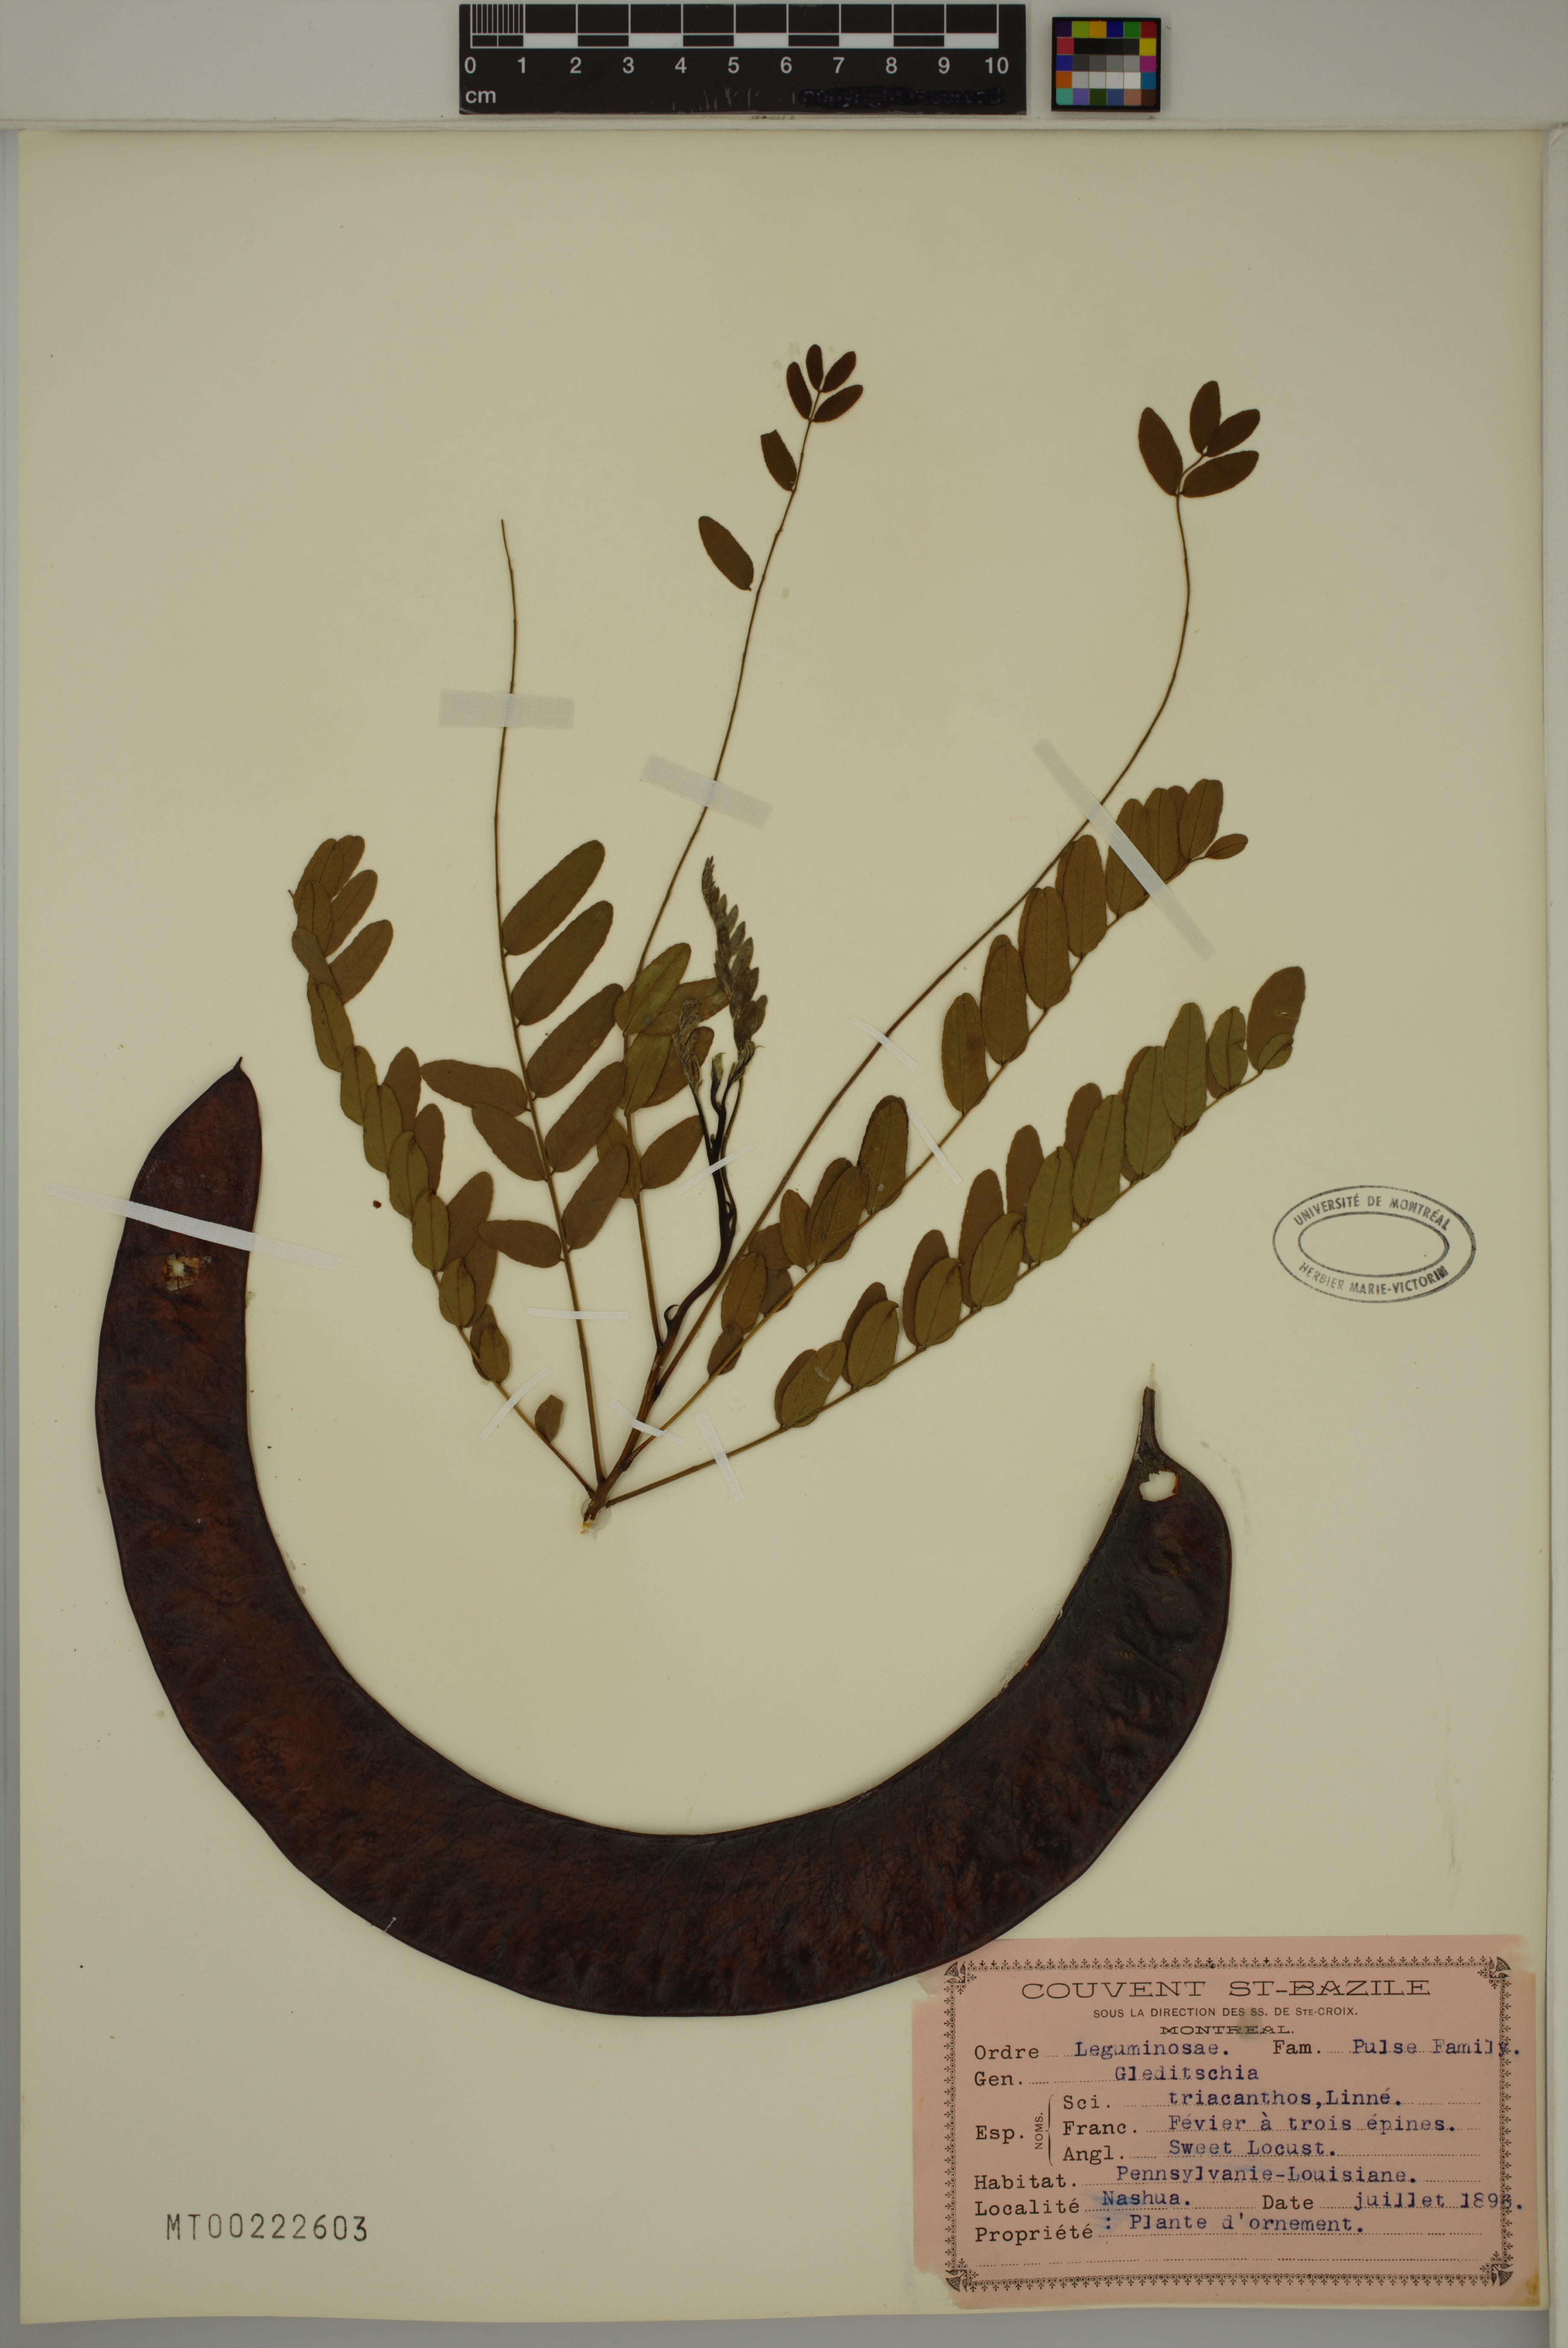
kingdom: Plantae
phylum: Tracheophyta
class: Magnoliopsida
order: Fabales
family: Fabaceae
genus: Gleditsia
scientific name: Gleditsia triacanthos
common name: Common honeylocust
